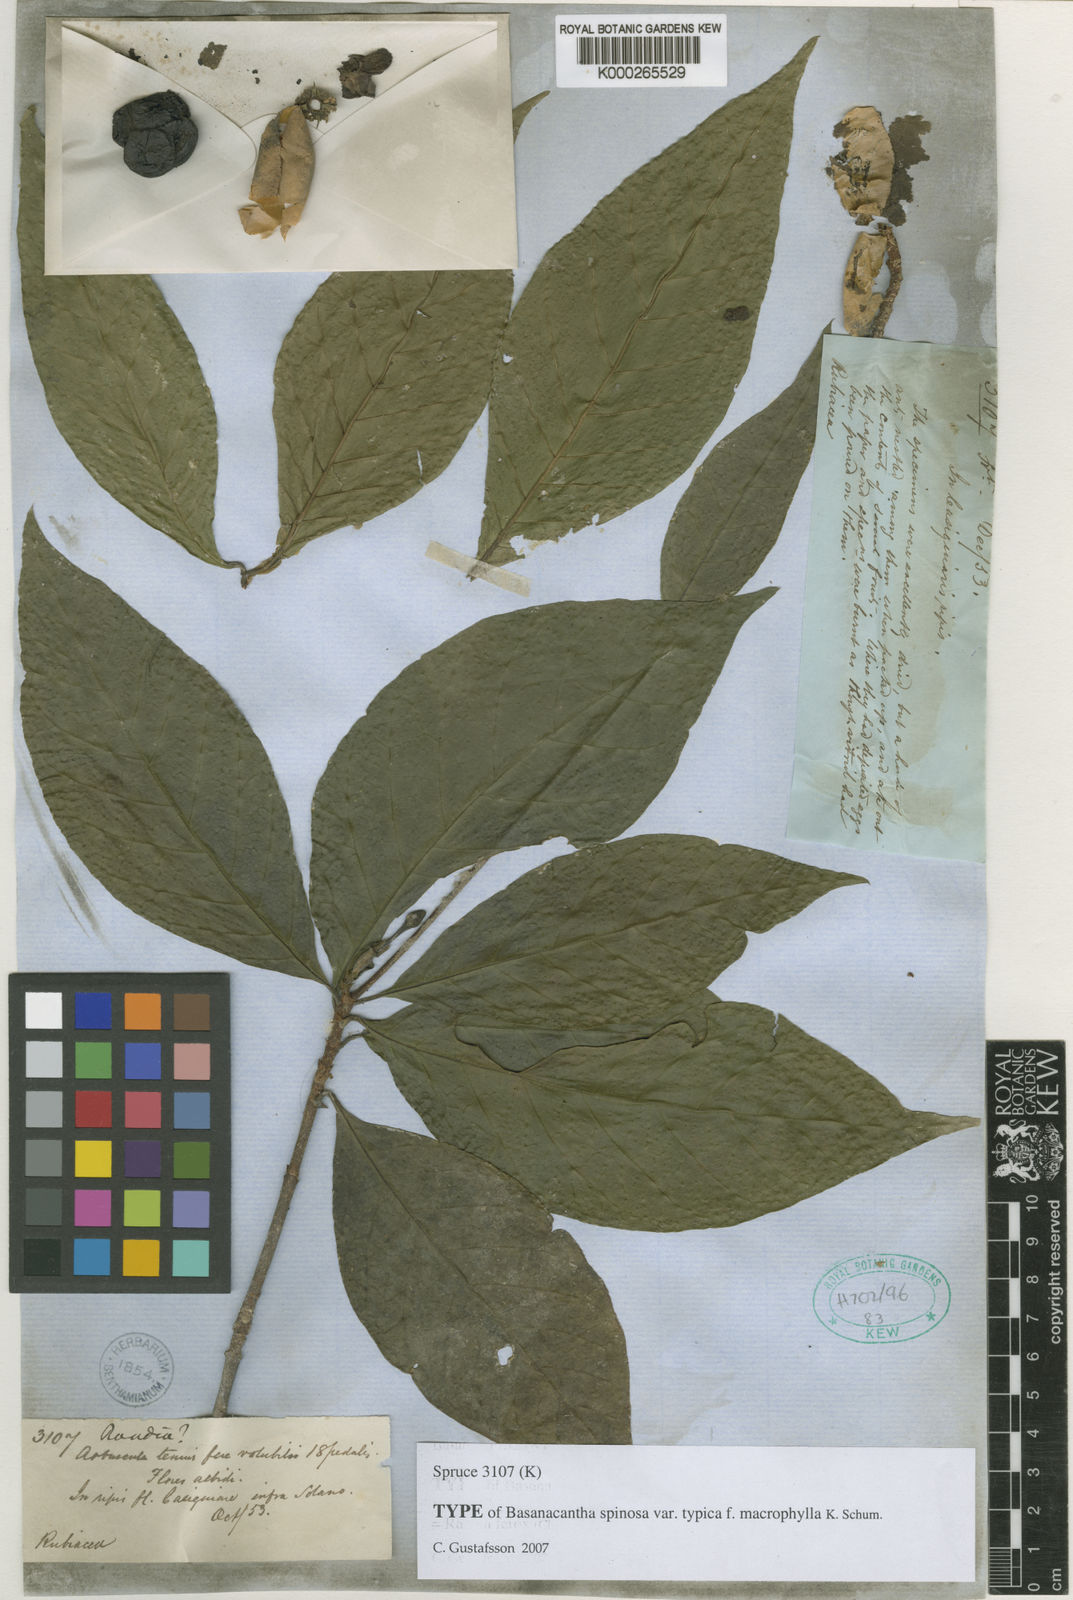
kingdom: Plantae
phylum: Tracheophyta
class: Magnoliopsida
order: Gentianales
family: Rubiaceae
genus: Randia
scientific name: Randia
